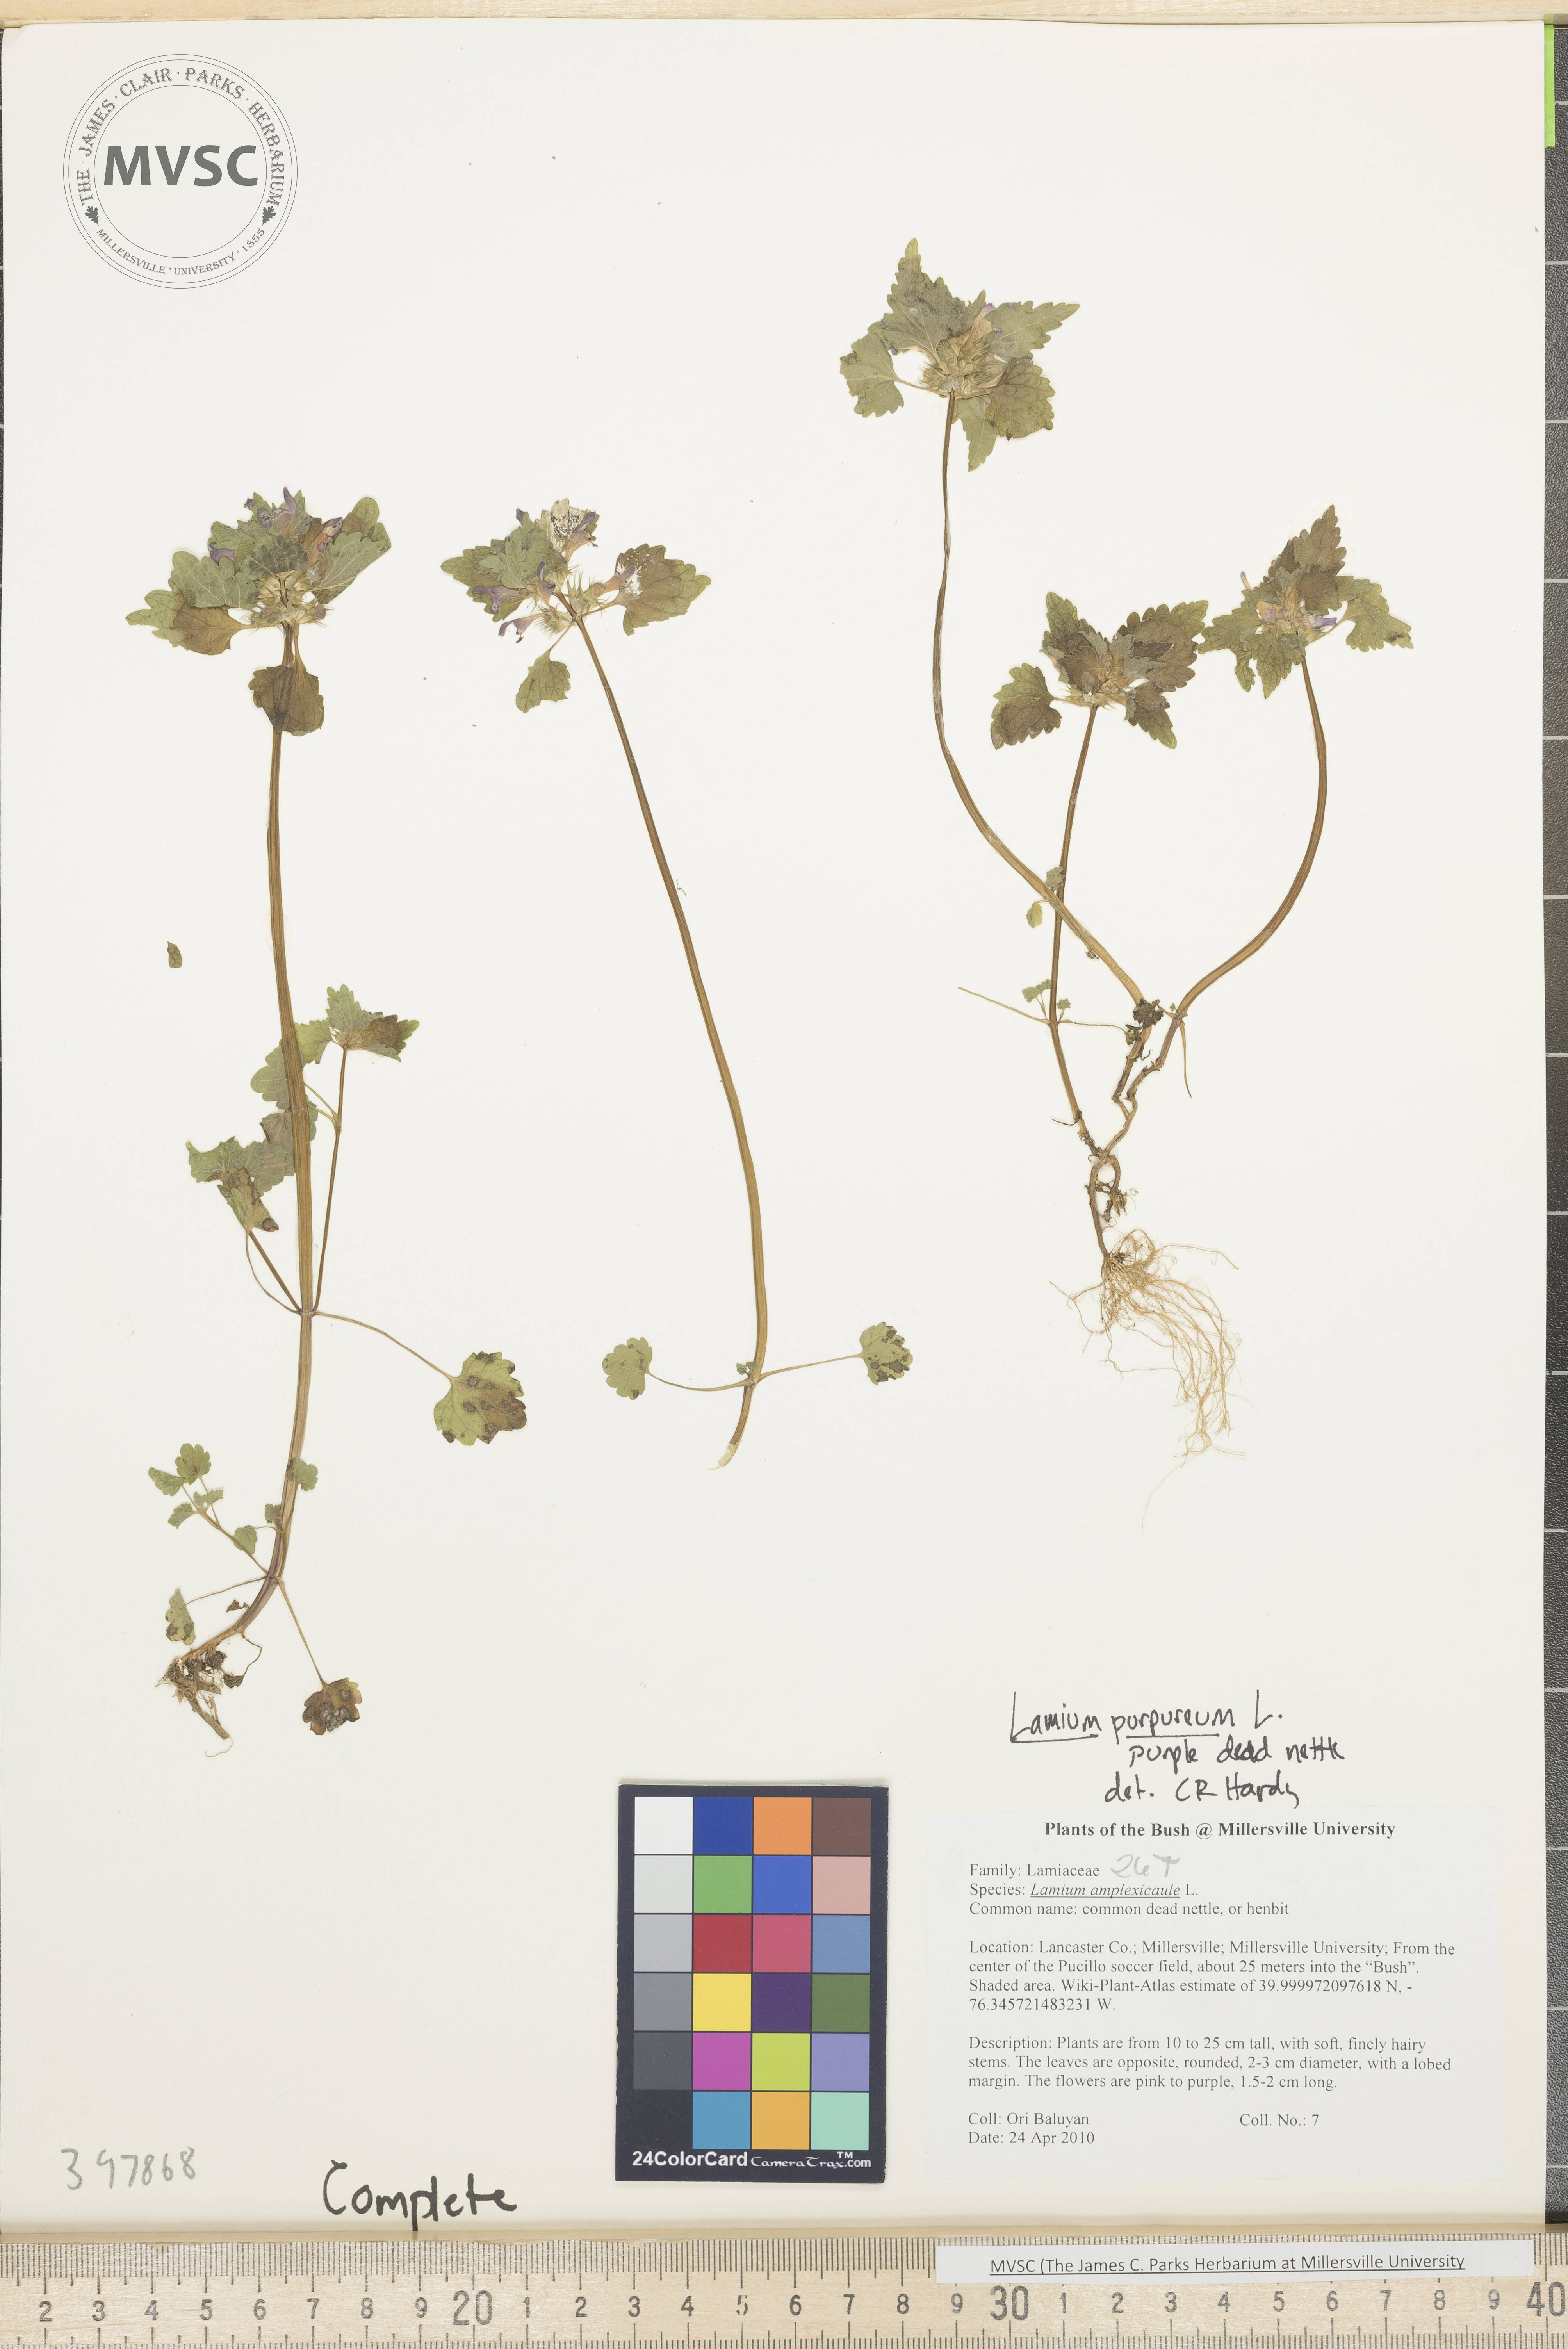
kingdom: Plantae
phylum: Tracheophyta
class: Magnoliopsida
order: Lamiales
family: Lamiaceae
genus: Lamium
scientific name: Lamium purpureum
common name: Purple dead-nettle
